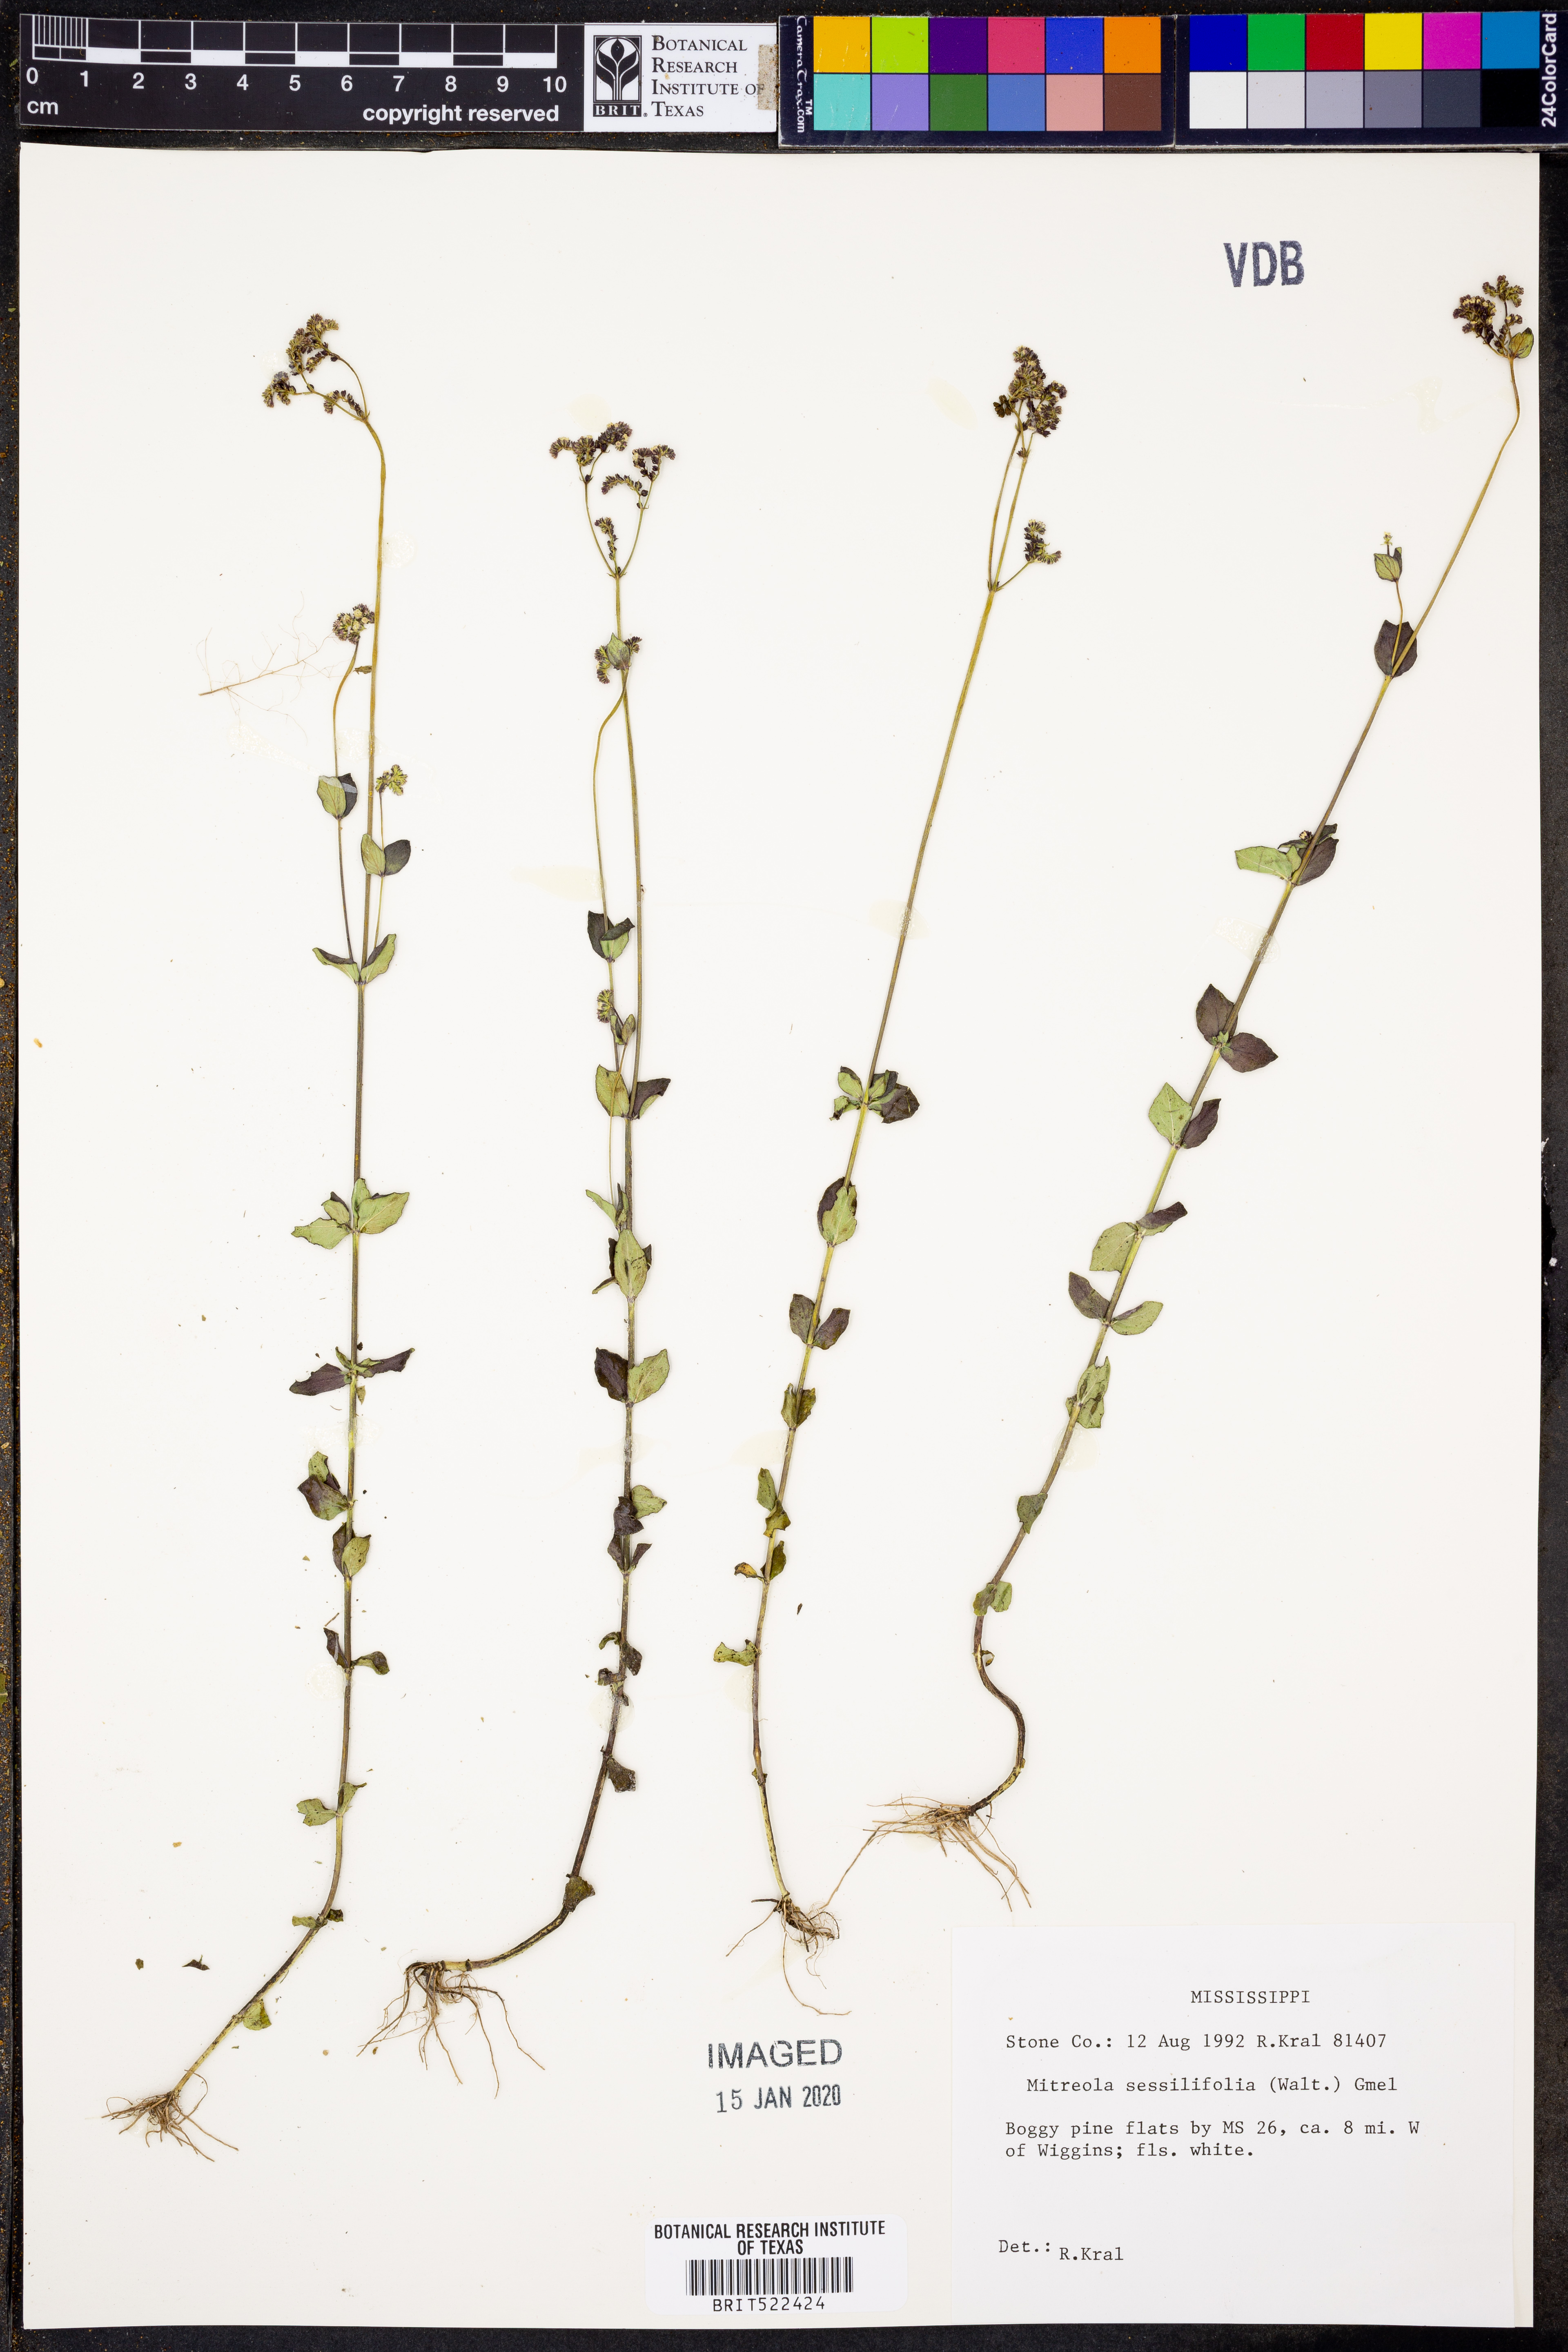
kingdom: Plantae
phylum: Tracheophyta
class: Magnoliopsida
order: Gentianales
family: Loganiaceae
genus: Mitreola
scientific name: Mitreola sessilifolia
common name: Swamp hornpod
